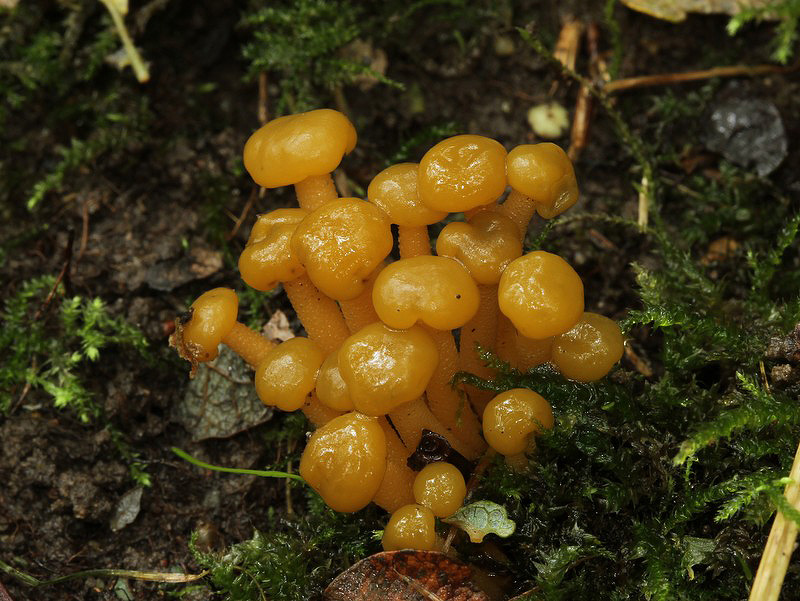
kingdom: Fungi
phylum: Ascomycota
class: Leotiomycetes
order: Leotiales
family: Leotiaceae
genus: Leotia
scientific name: Leotia lubrica
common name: ravsvamp
